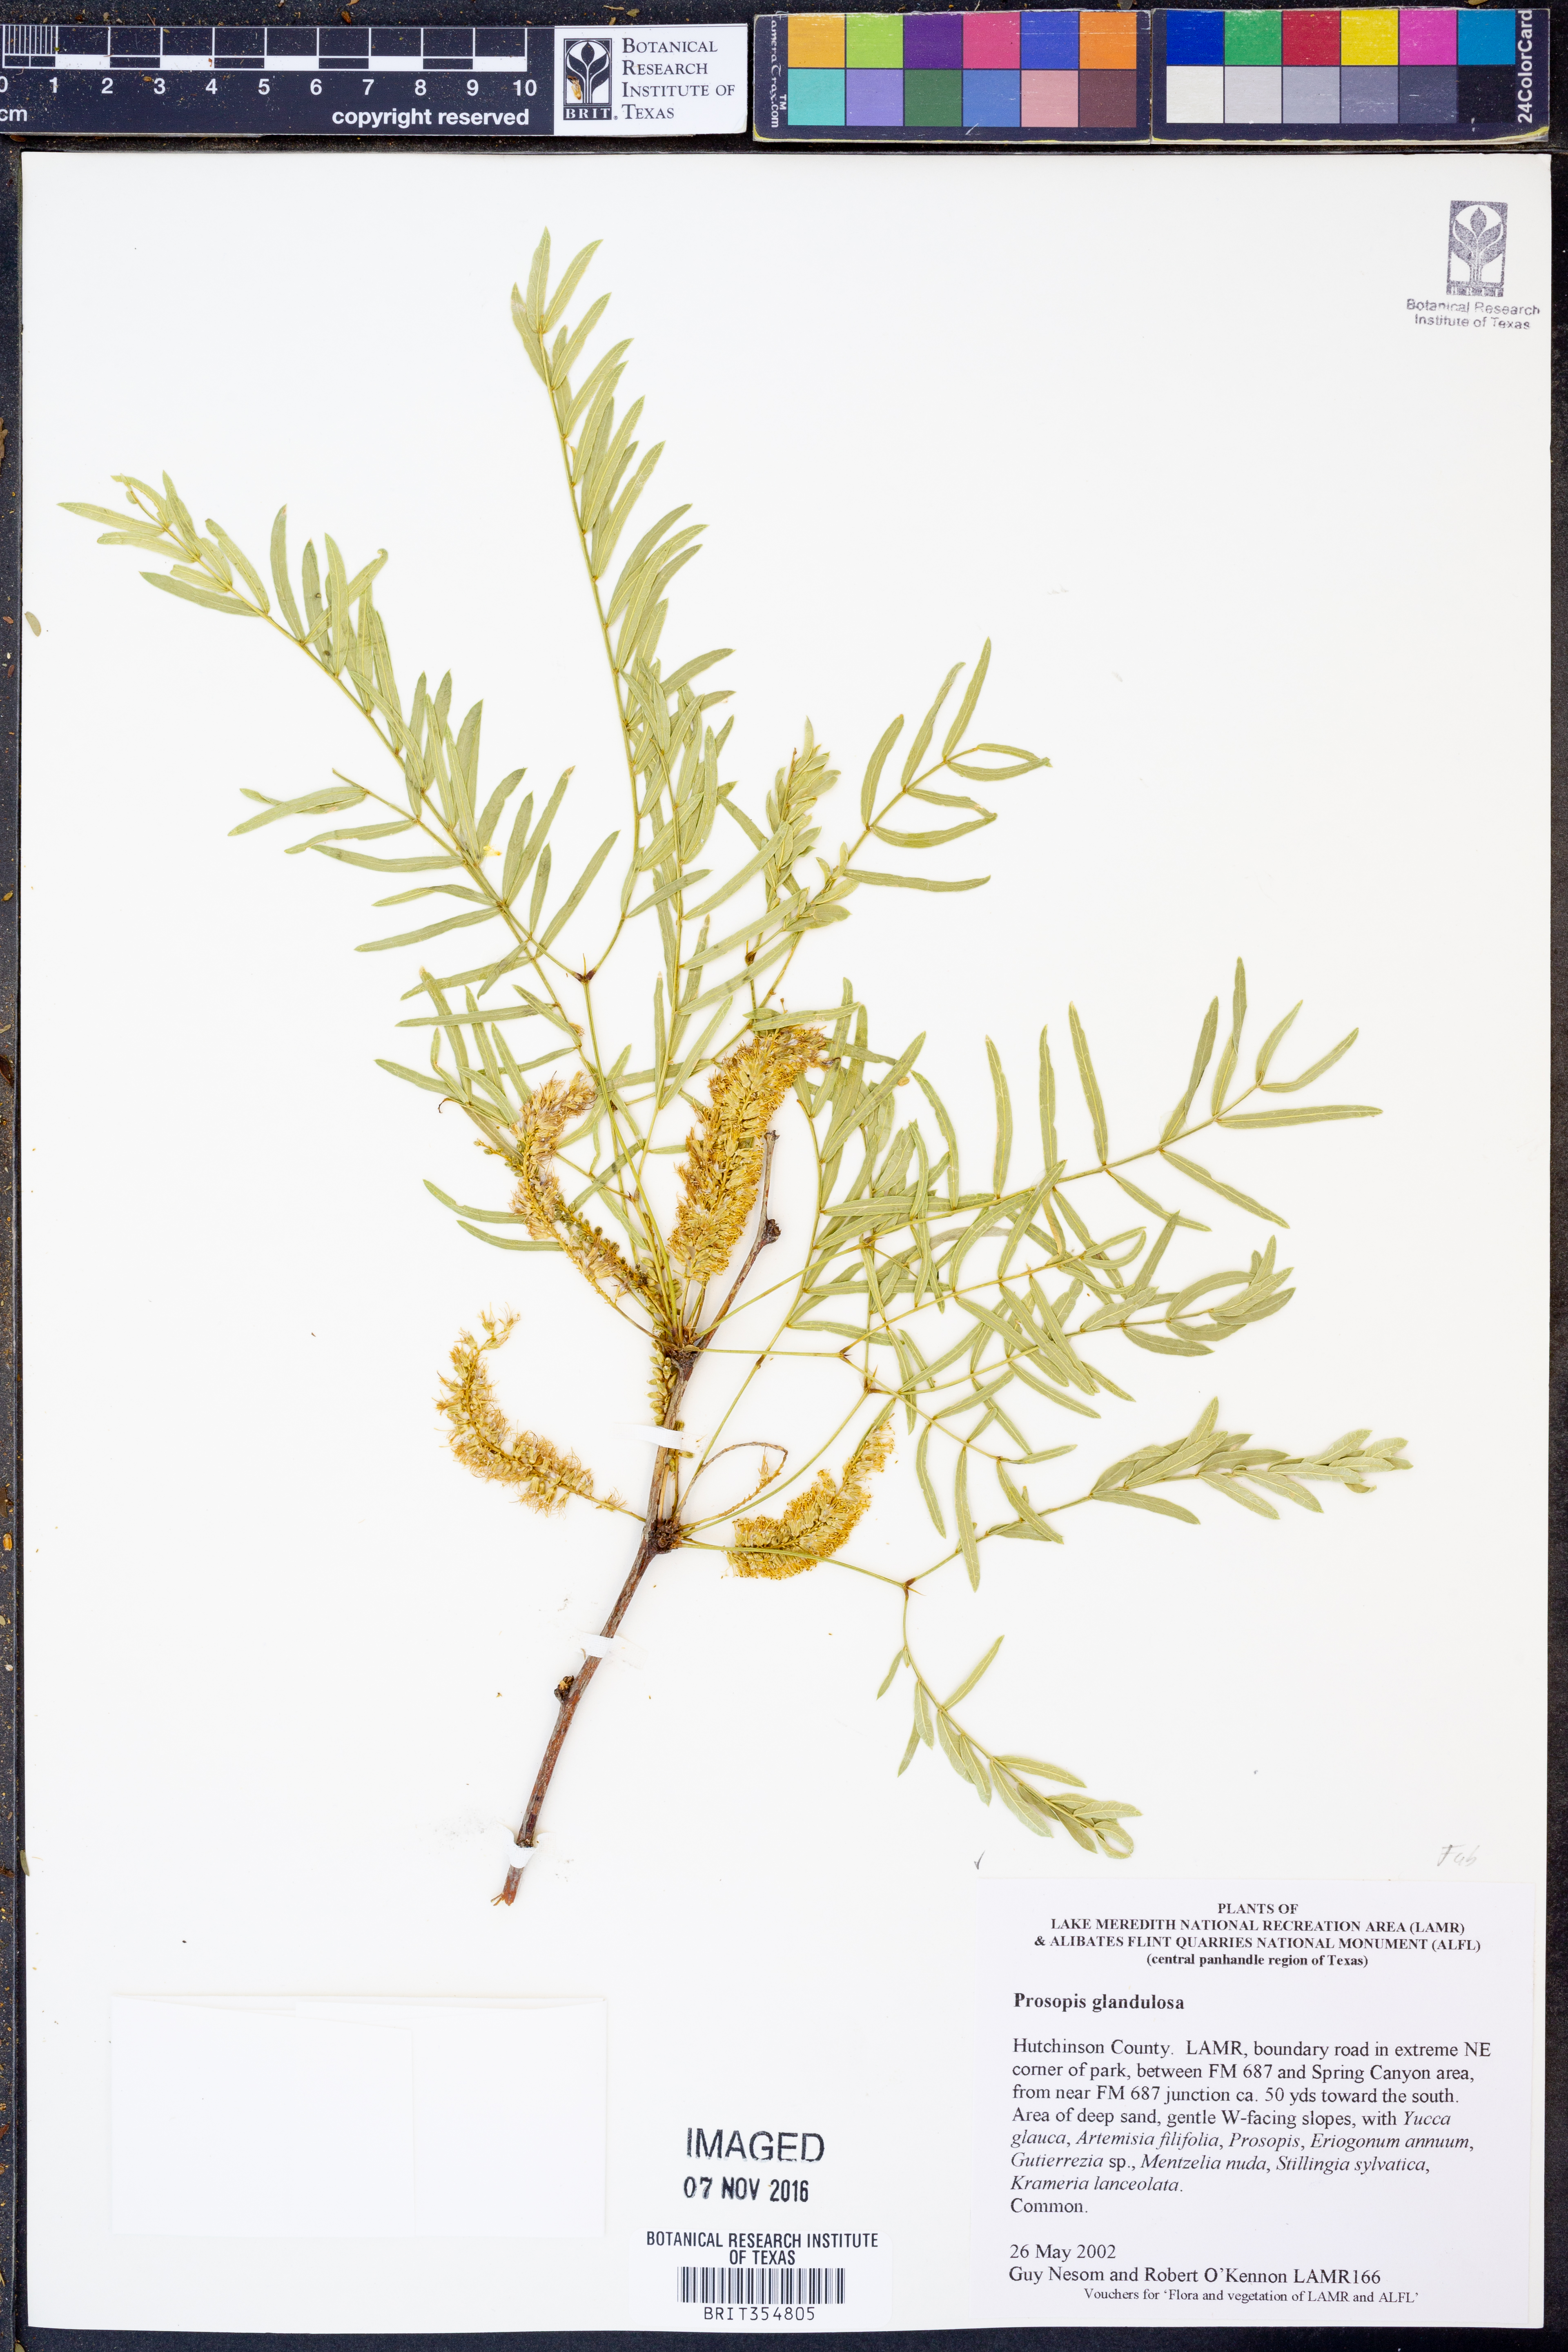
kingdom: Plantae
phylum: Tracheophyta
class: Magnoliopsida
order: Fabales
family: Fabaceae
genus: Prosopis
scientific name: Prosopis glandulosa
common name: Honey mesquite
